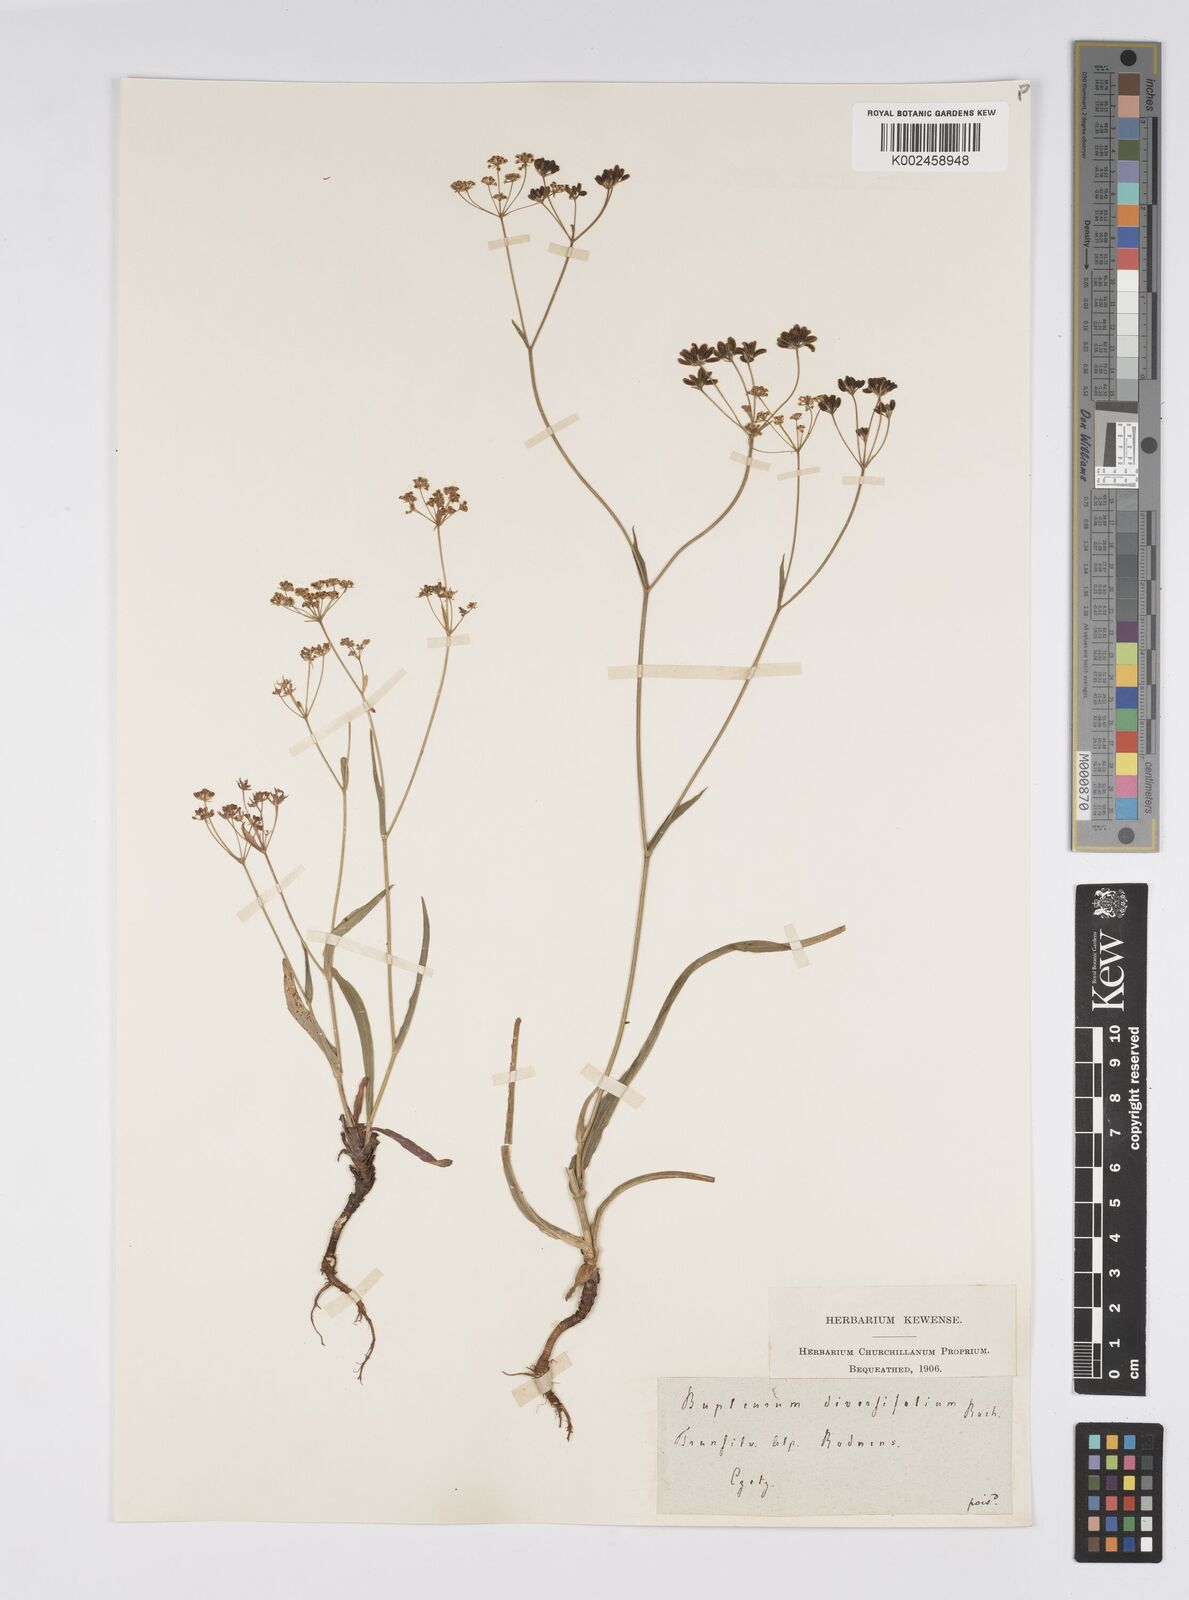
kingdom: Plantae
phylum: Tracheophyta
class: Magnoliopsida
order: Apiales
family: Apiaceae
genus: Bupleurum
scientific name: Bupleurum falcatum
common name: Sickle-leaved hare's-ear
